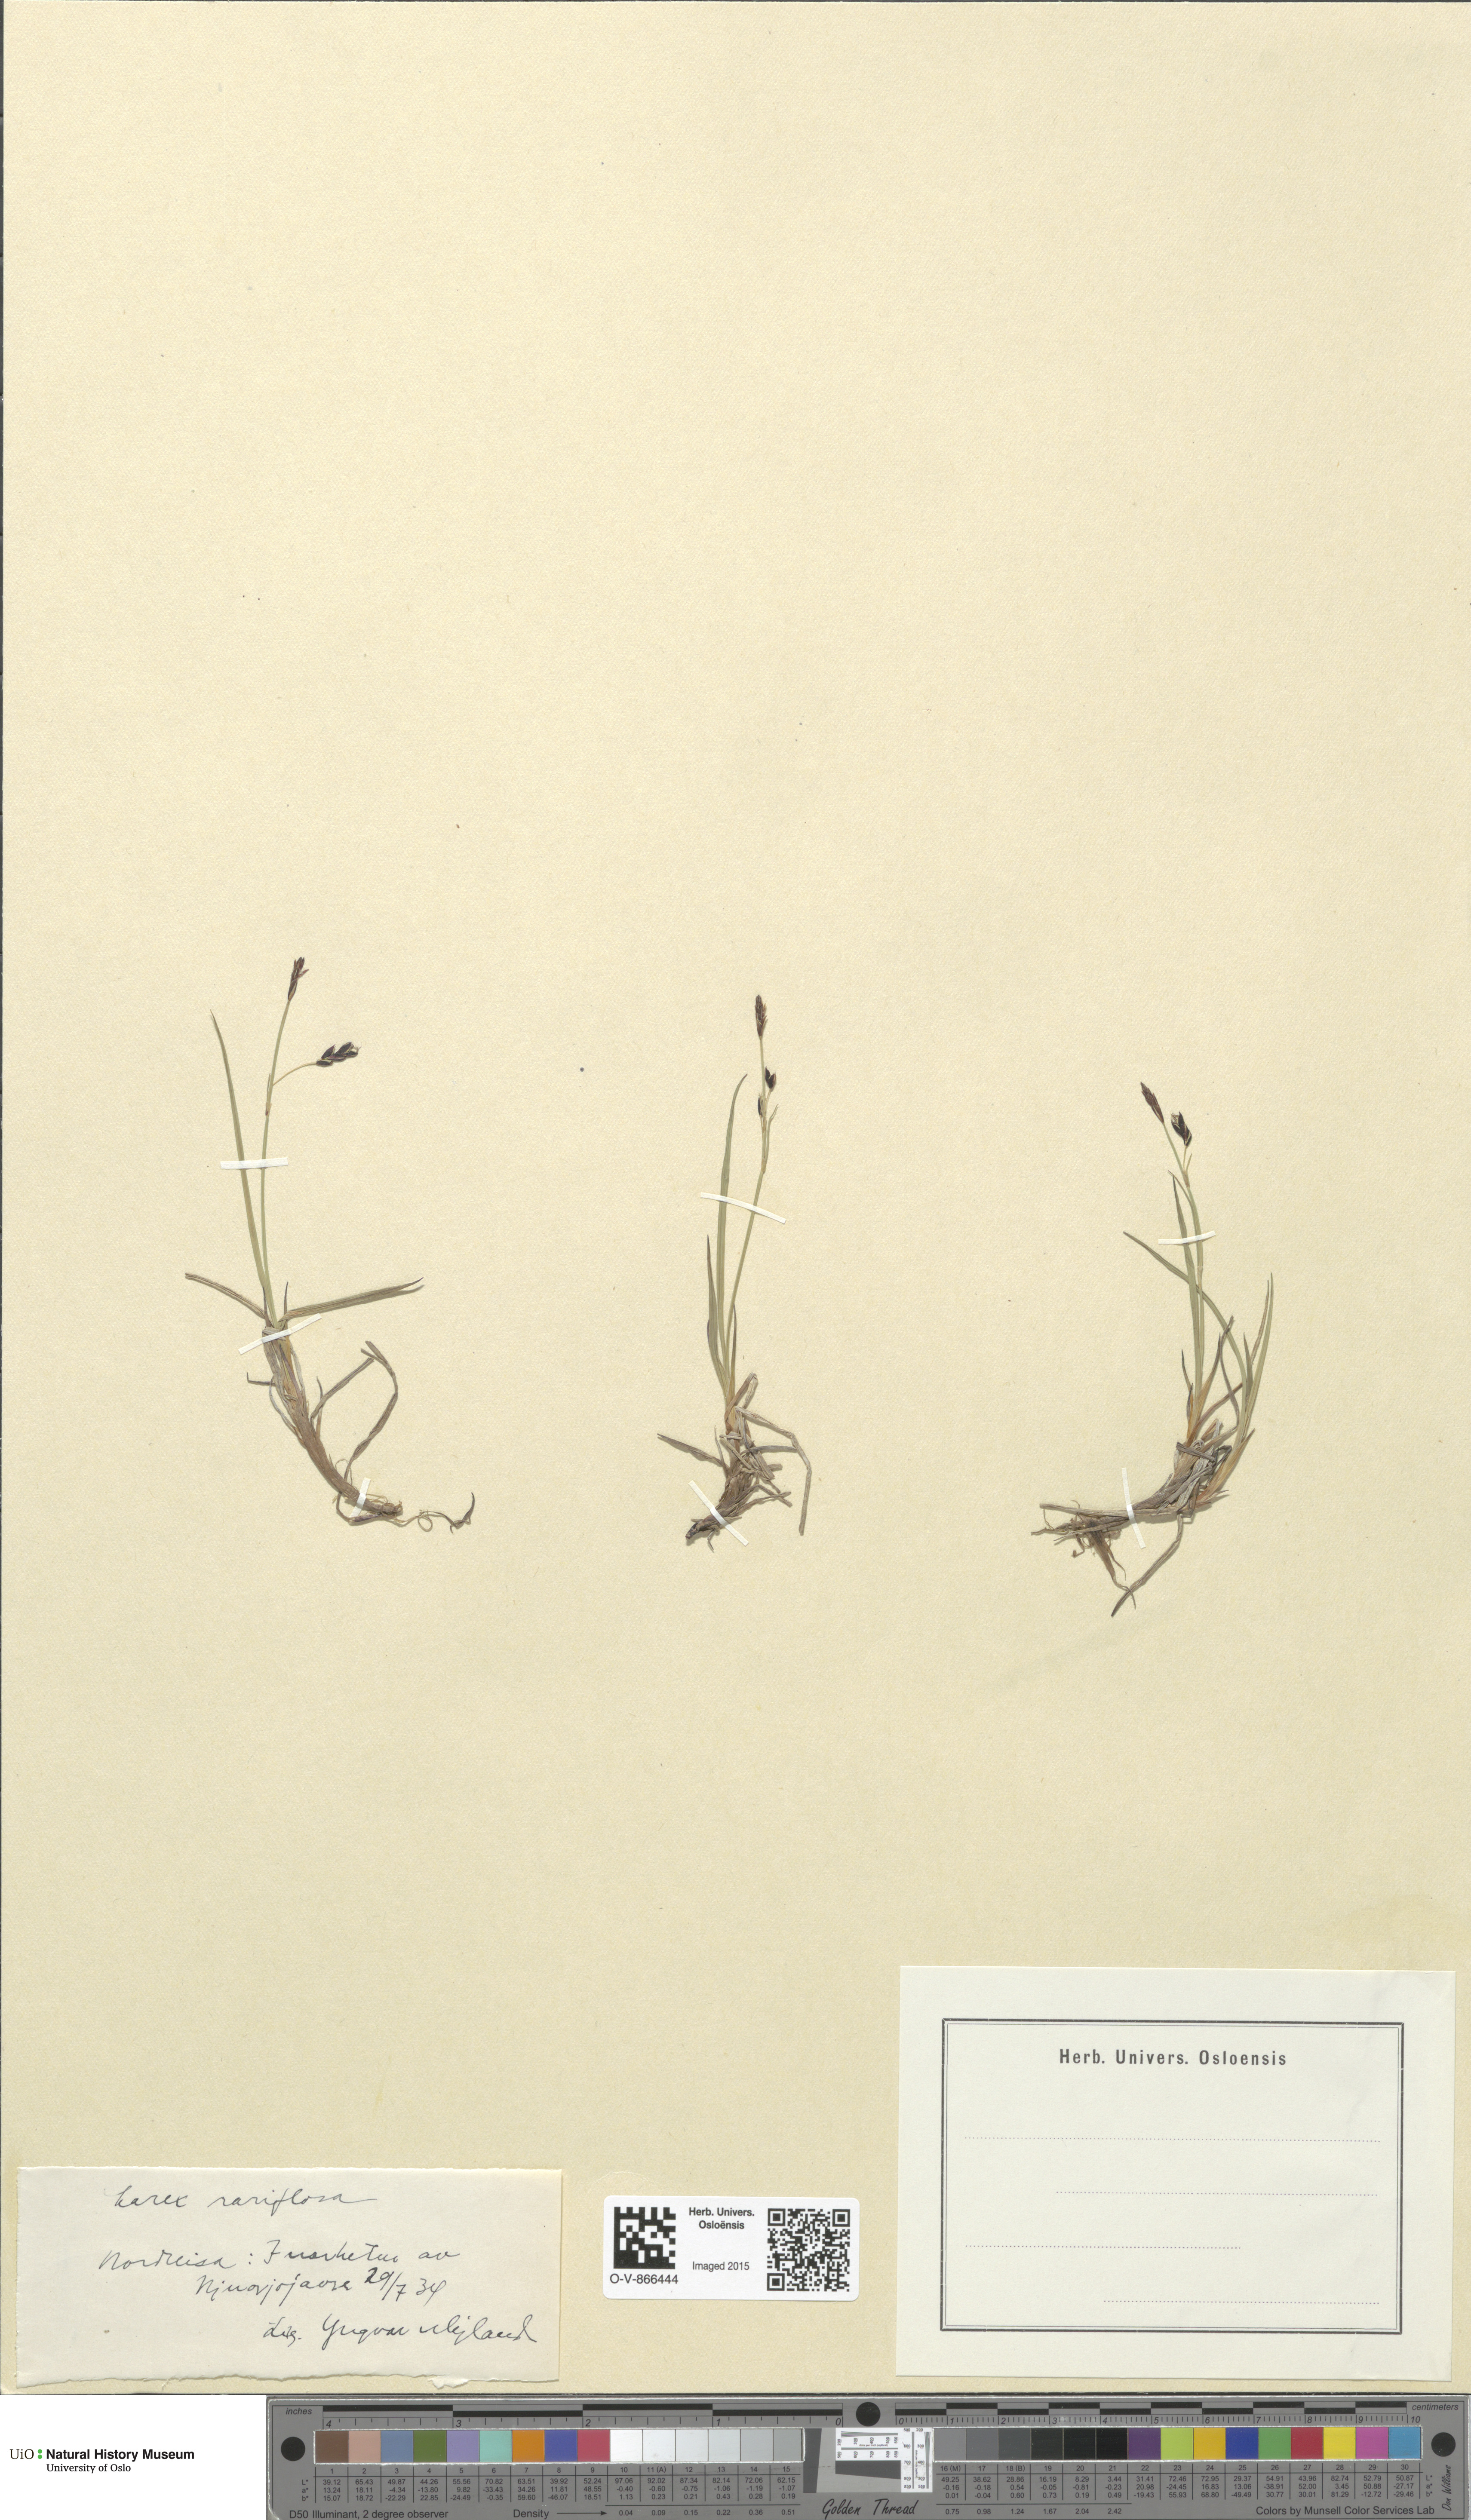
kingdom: Plantae
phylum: Tracheophyta
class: Liliopsida
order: Poales
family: Cyperaceae
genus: Carex
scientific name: Carex rariflora
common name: Loose-flowered alpine sedge
